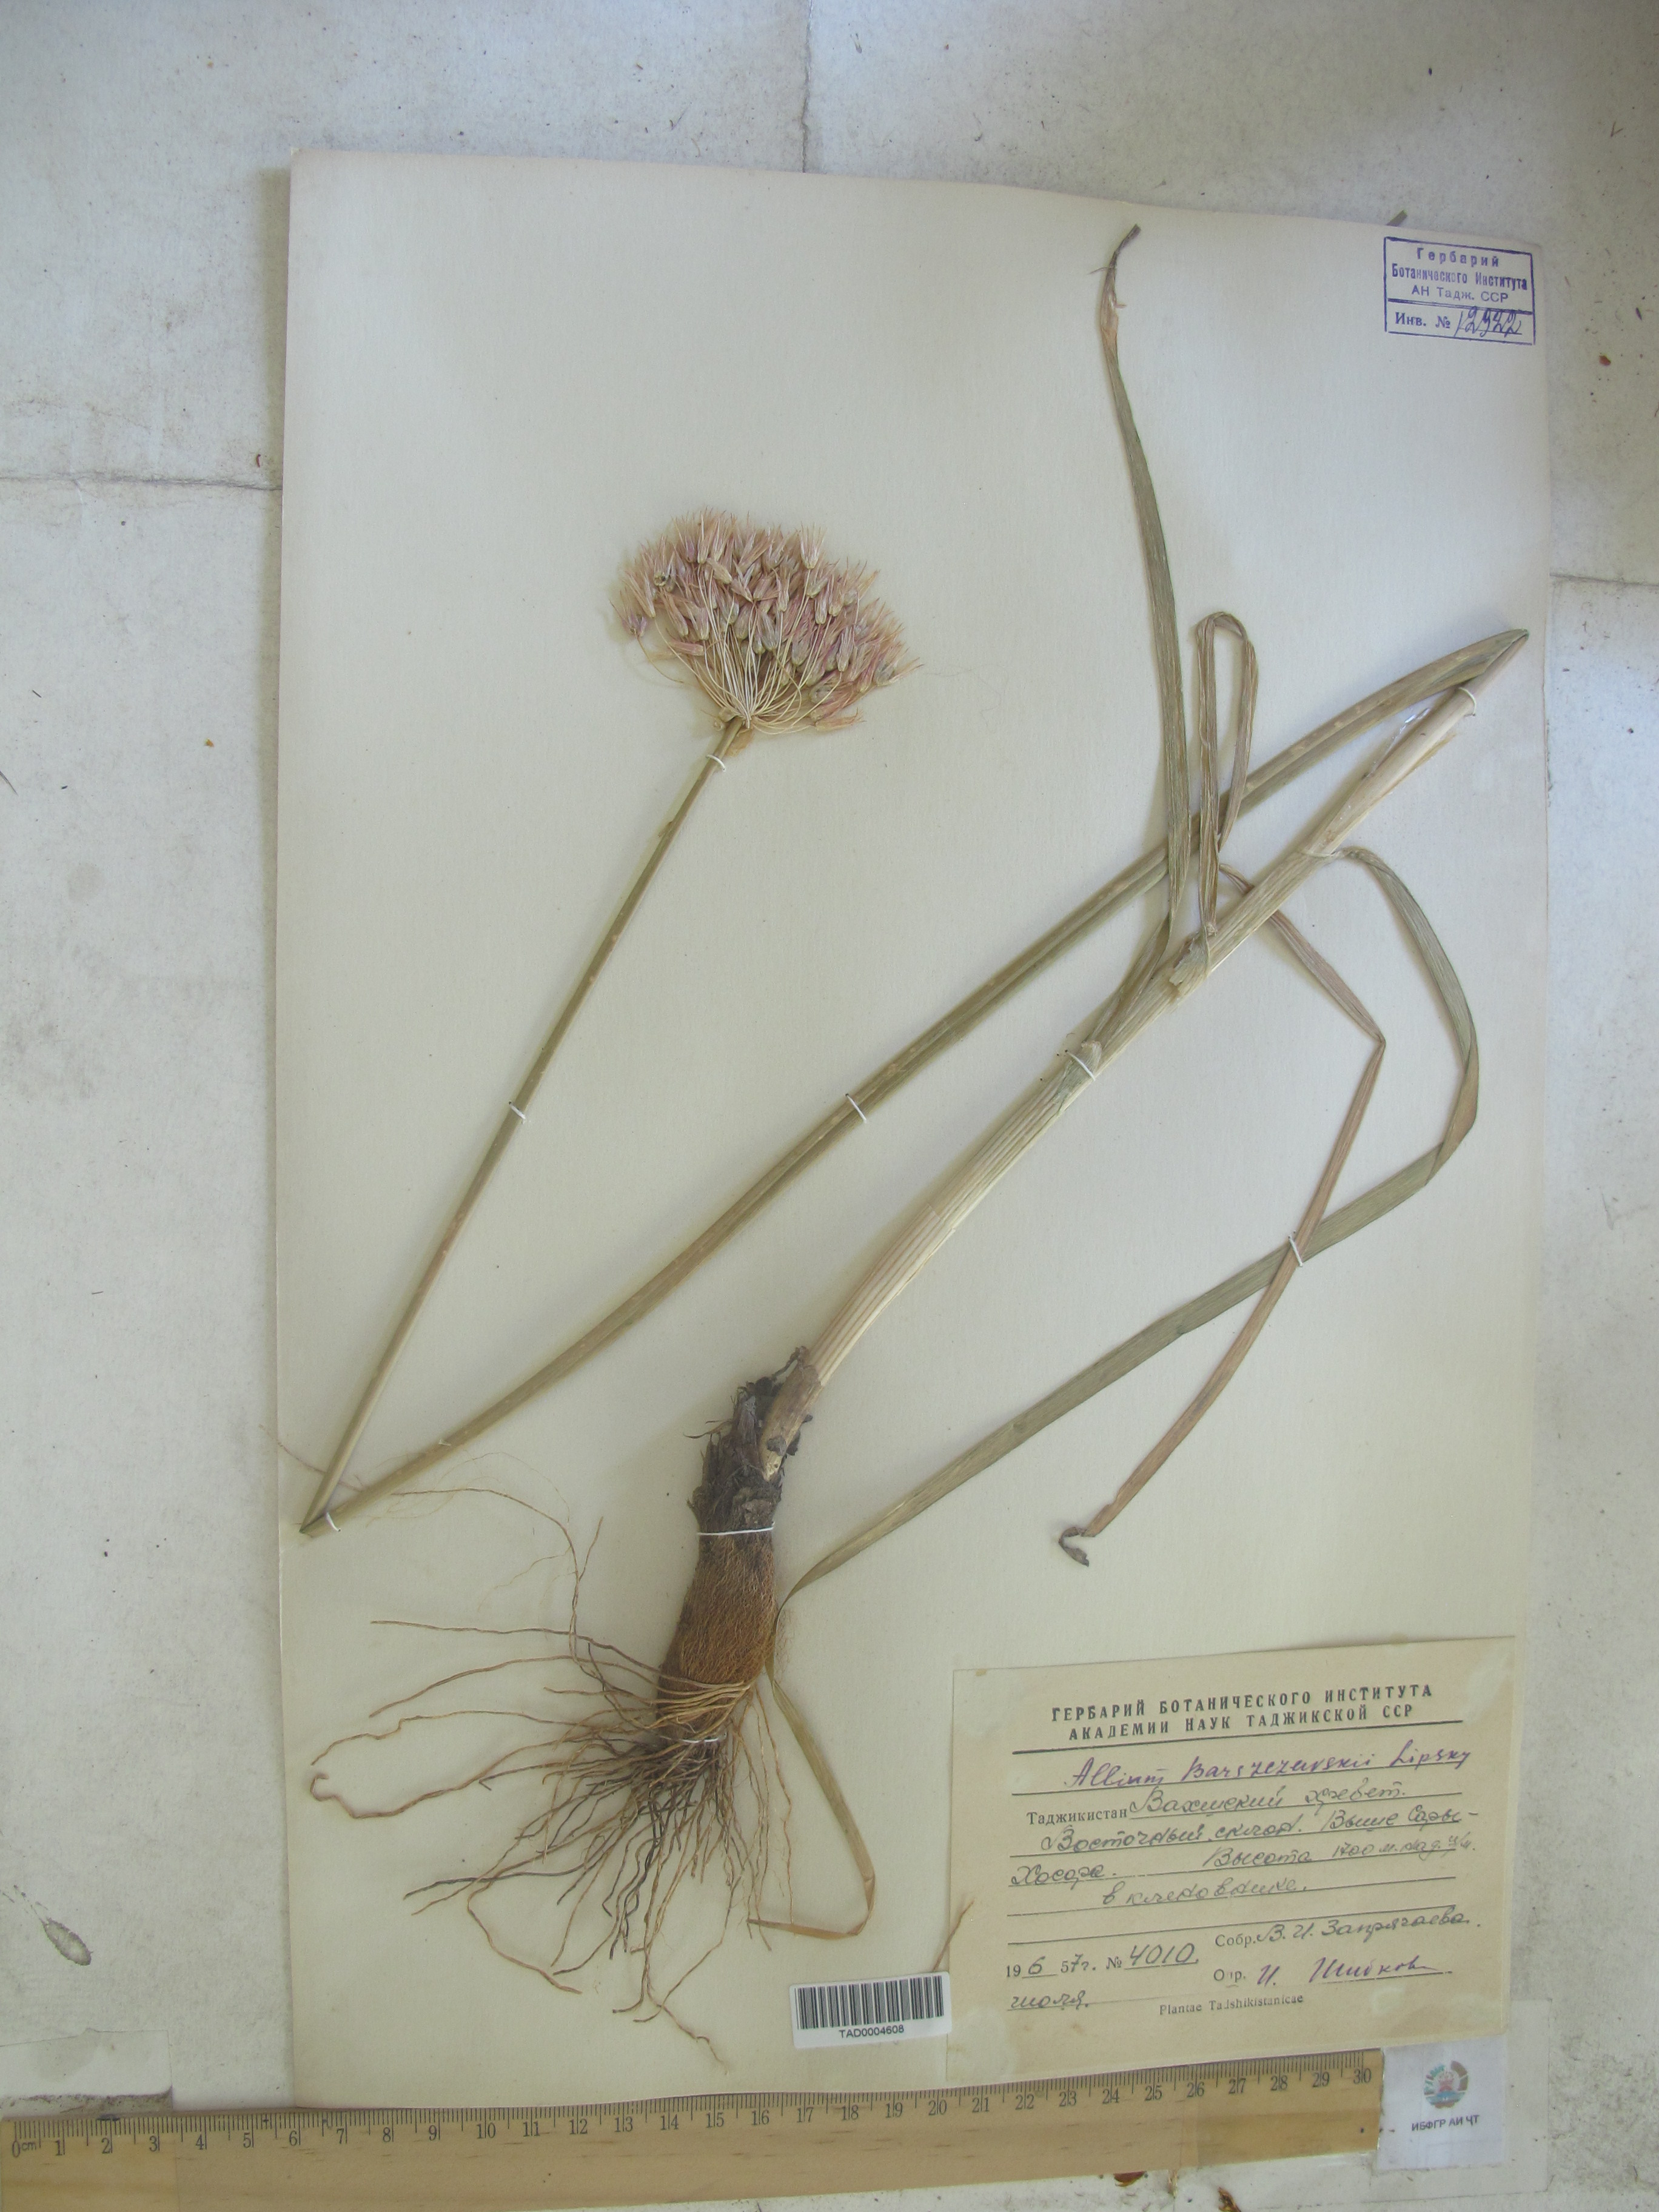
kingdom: Plantae
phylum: Tracheophyta
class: Liliopsida
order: Asparagales
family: Amaryllidaceae
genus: Allium
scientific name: Allium barsczewskii
